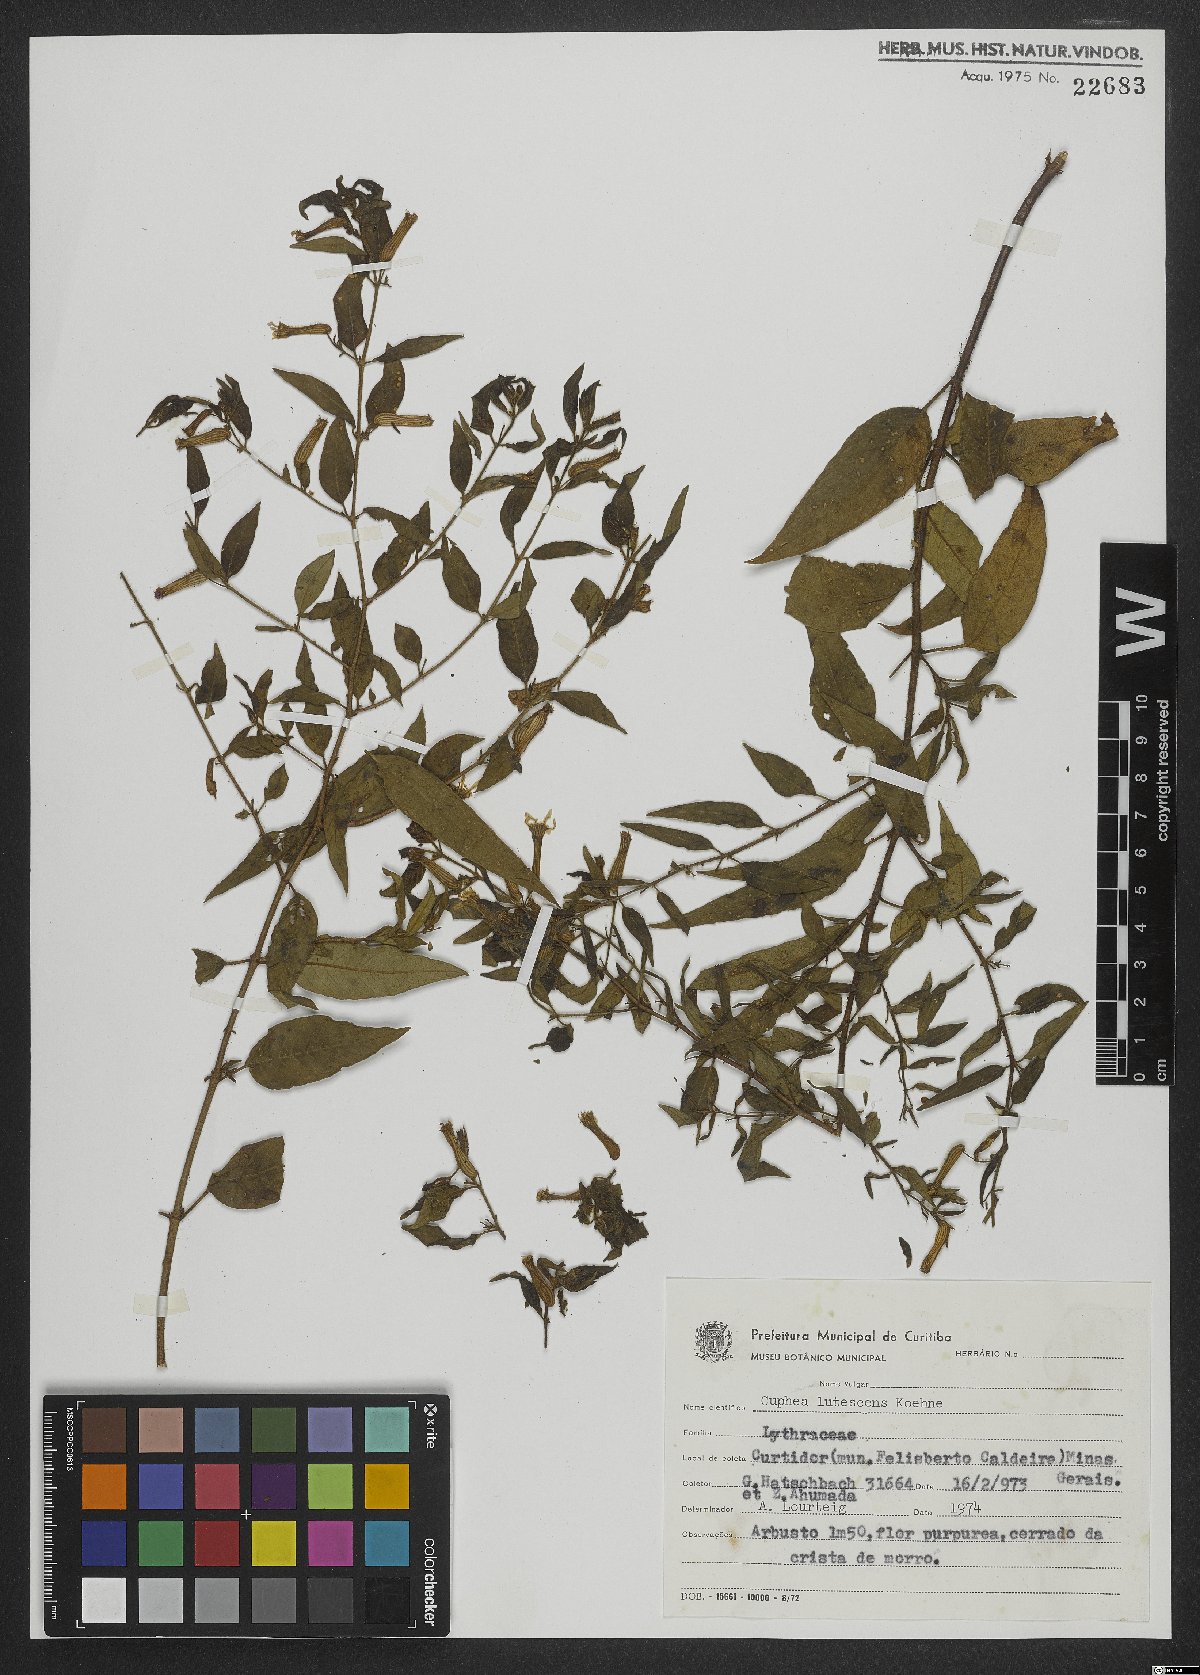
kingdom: Plantae
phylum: Tracheophyta
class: Magnoliopsida
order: Myrtales
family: Lythraceae
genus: Cuphea
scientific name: Cuphea lutescens
